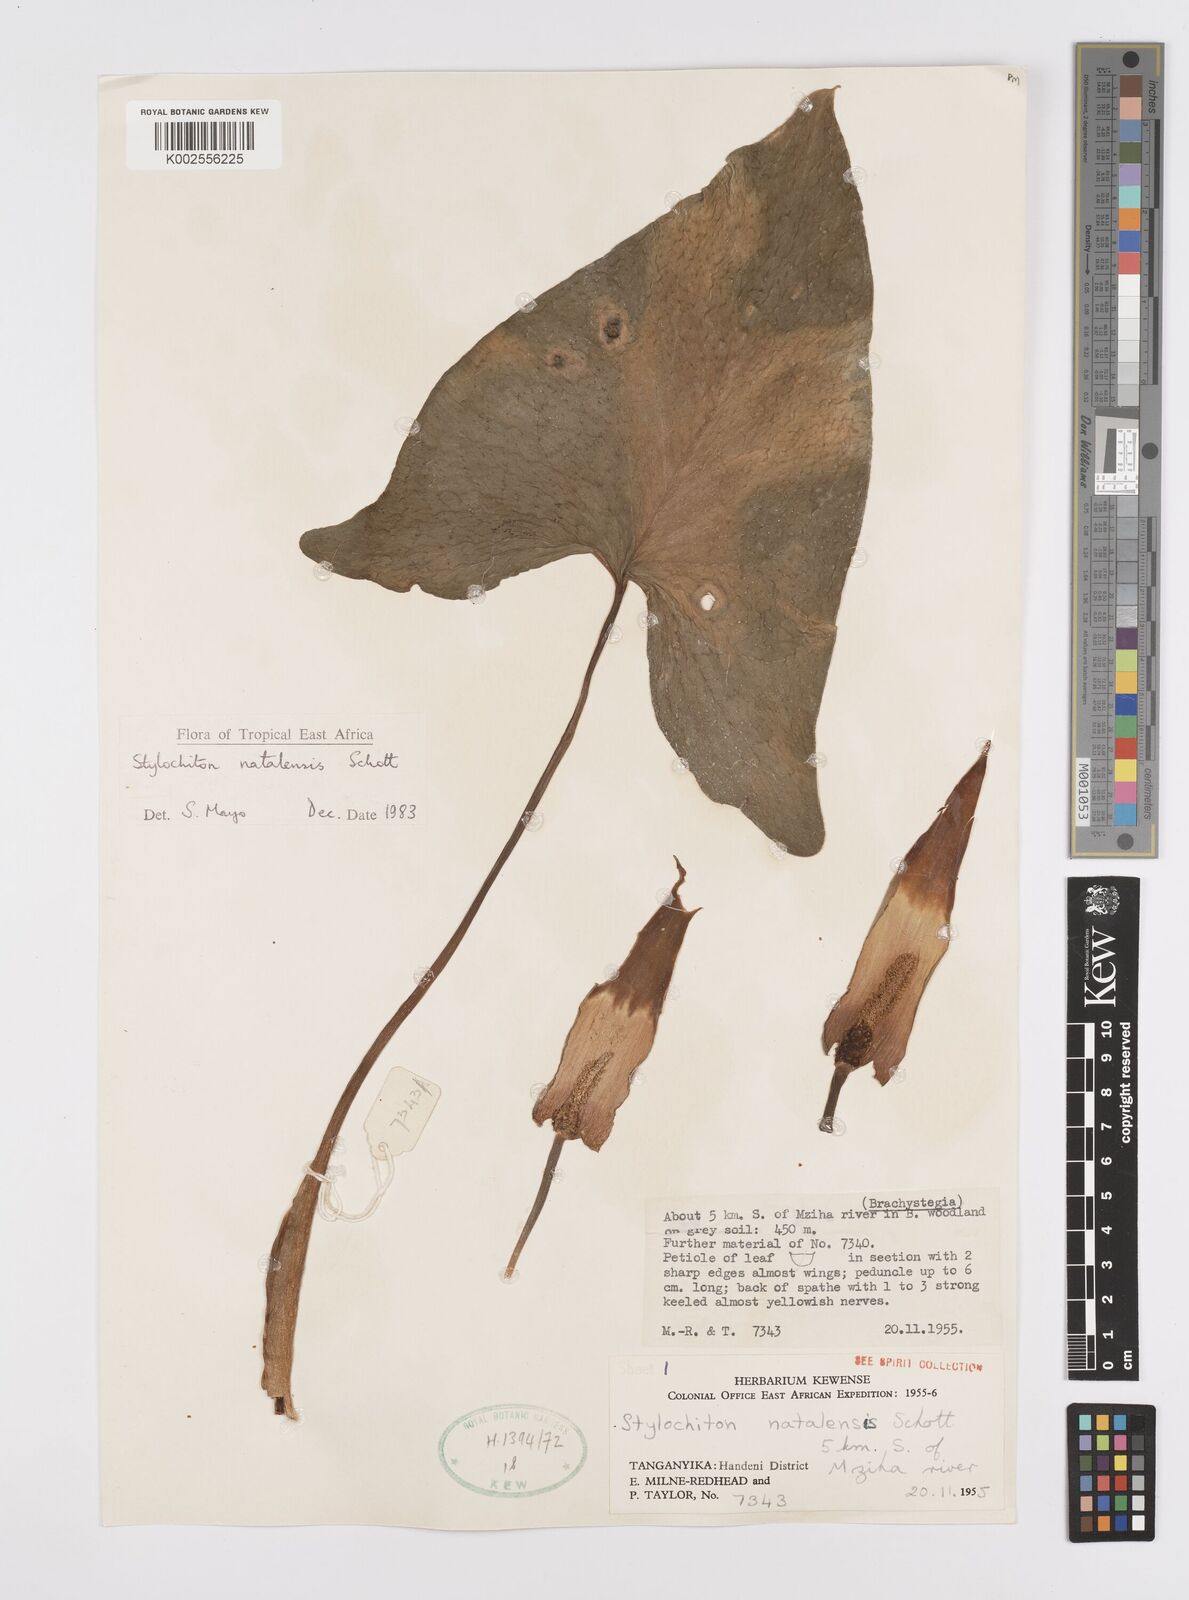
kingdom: Plantae
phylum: Tracheophyta
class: Liliopsida
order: Alismatales
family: Araceae
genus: Stylochaeton
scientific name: Stylochaeton natalense
